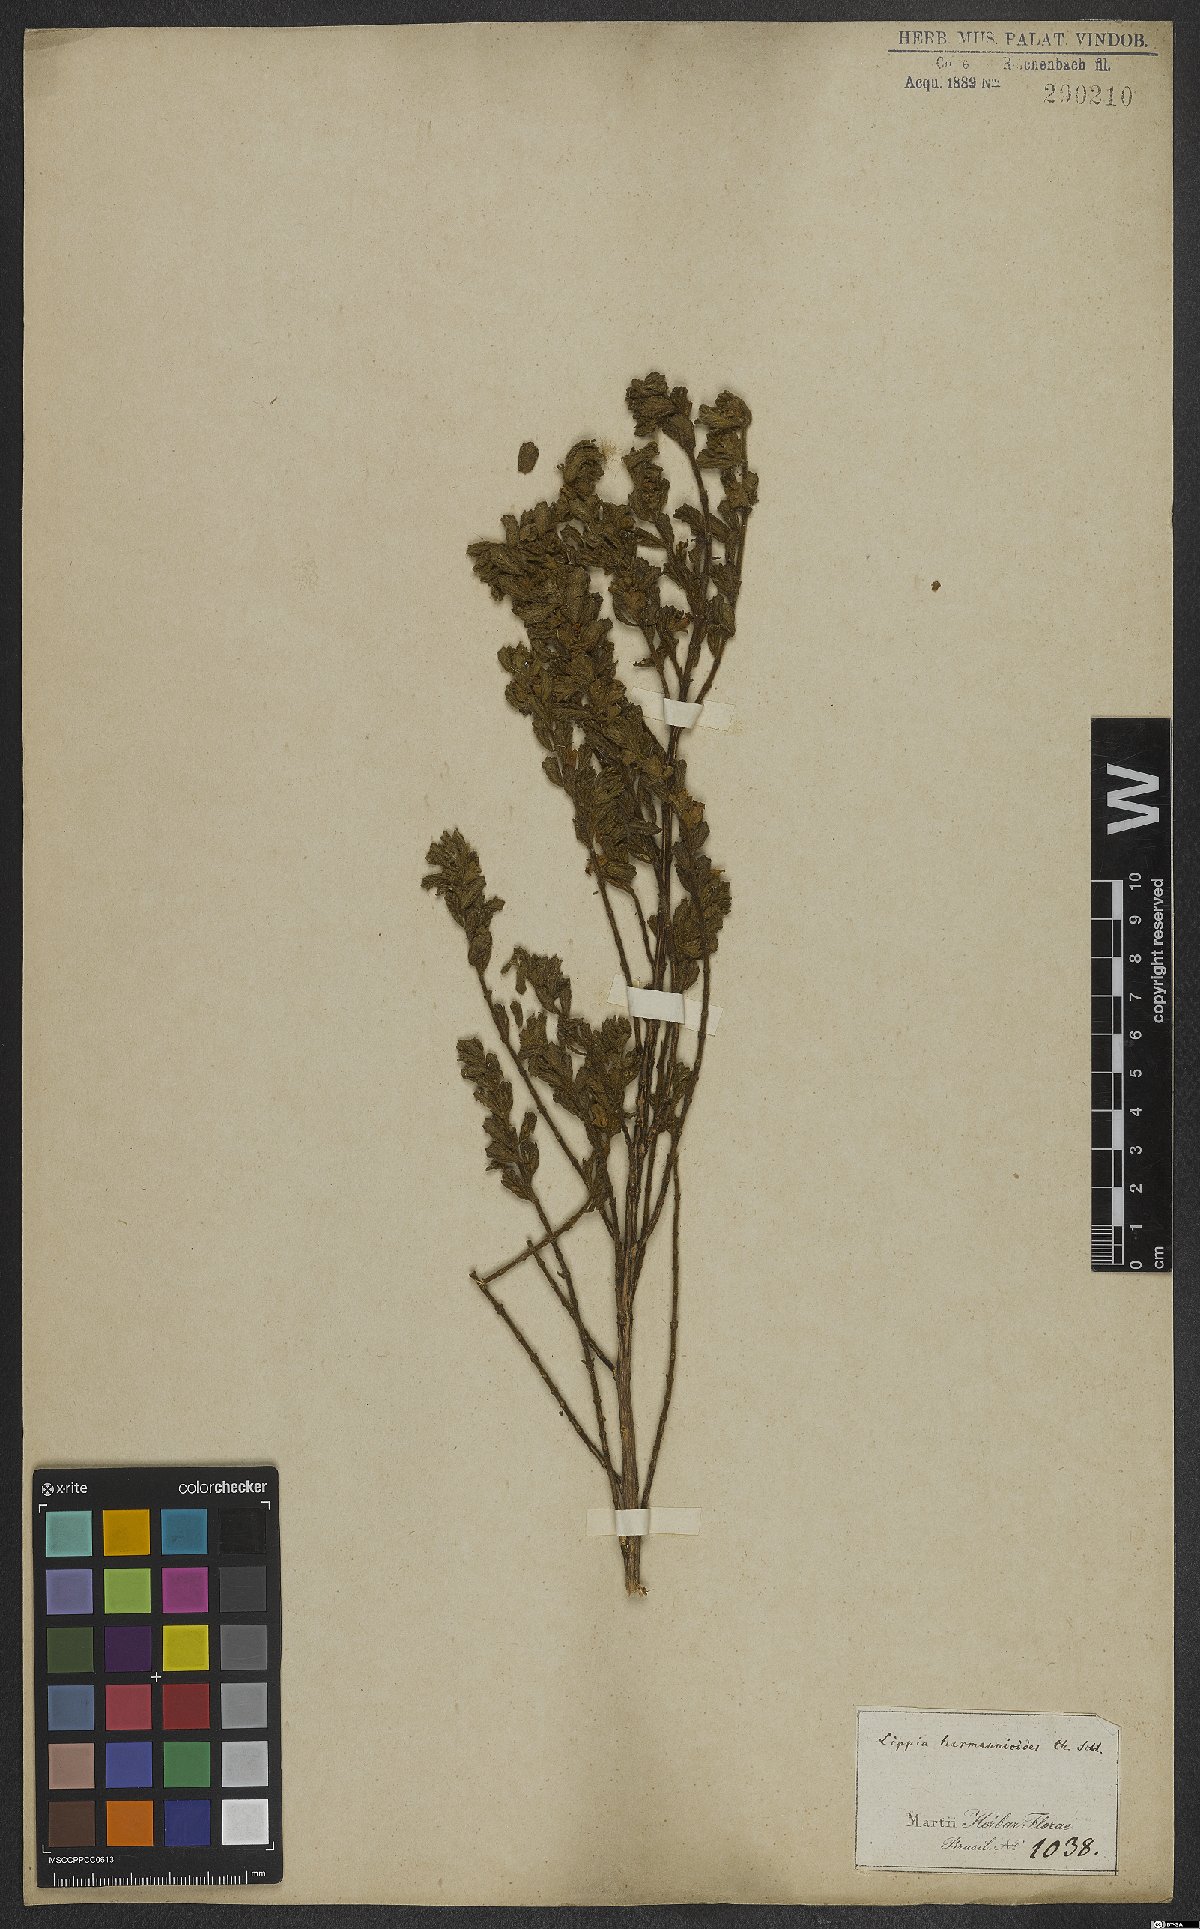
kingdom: Plantae
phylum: Tracheophyta
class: Magnoliopsida
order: Lamiales
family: Verbenaceae
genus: Lippia
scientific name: Lippia hermannioides
